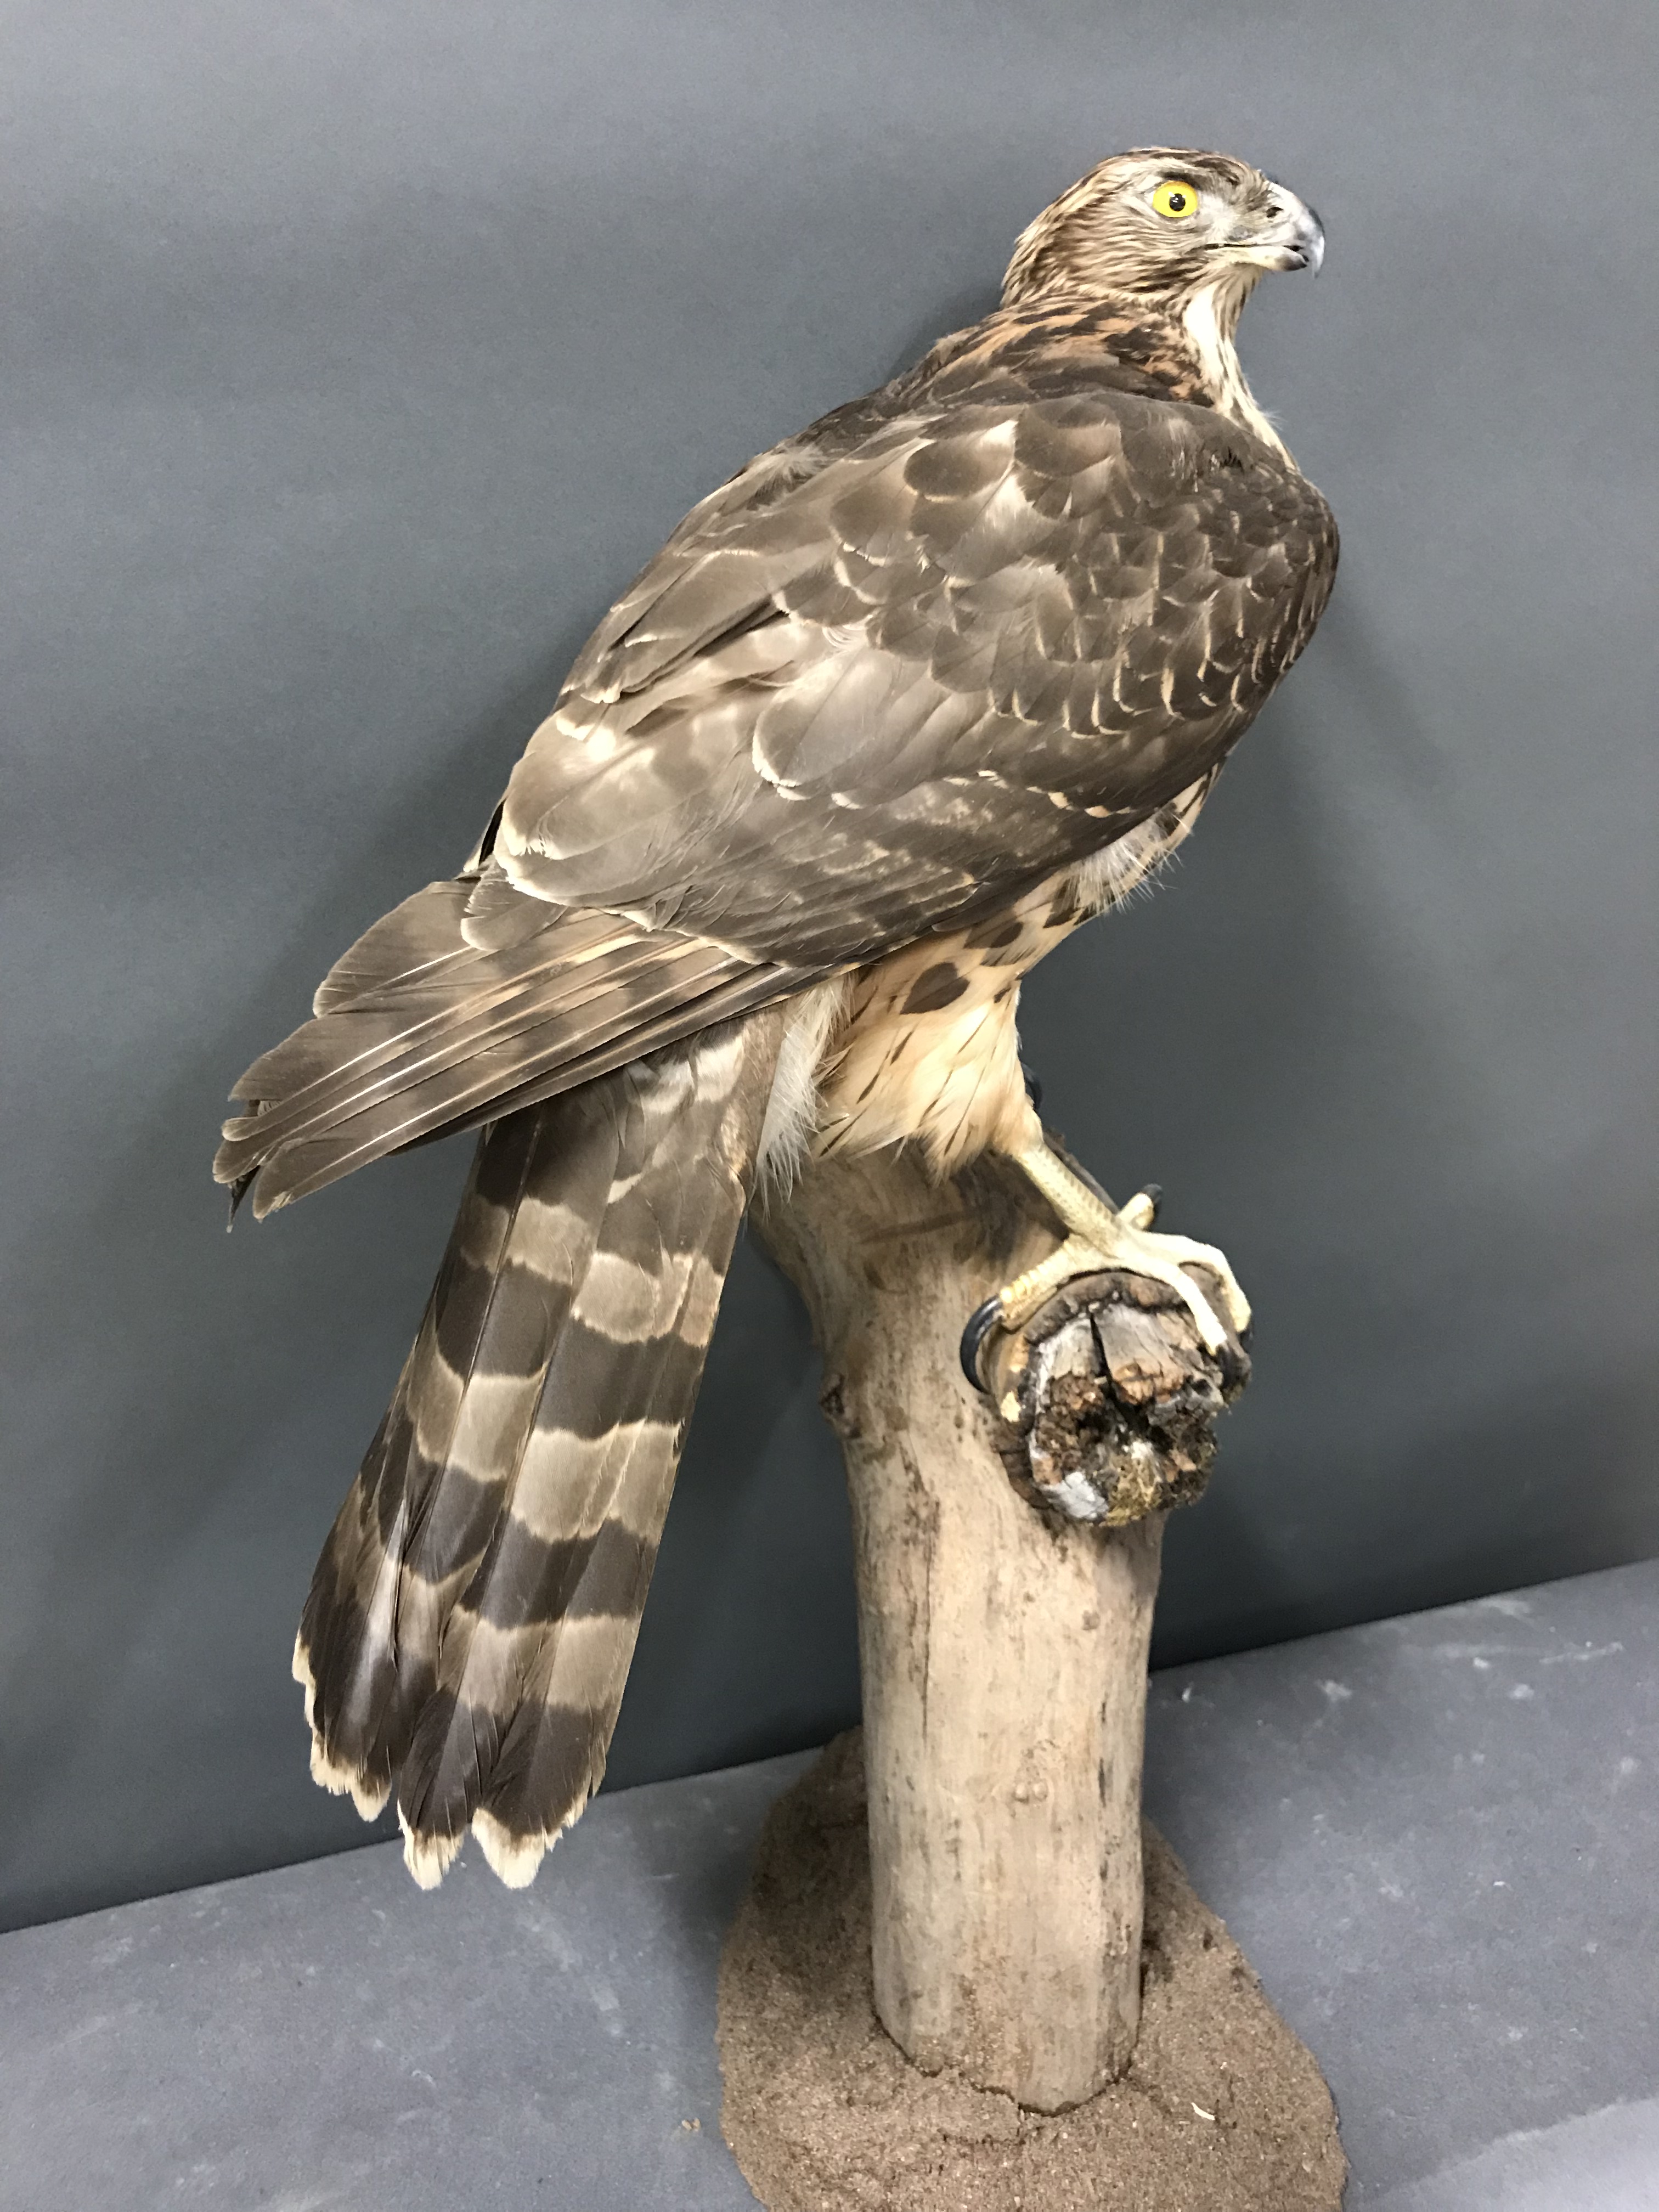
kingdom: Animalia
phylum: Chordata
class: Aves
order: Accipitriformes
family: Accipitridae
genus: Accipiter
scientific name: Accipiter gentilis
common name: Northern goshawk
